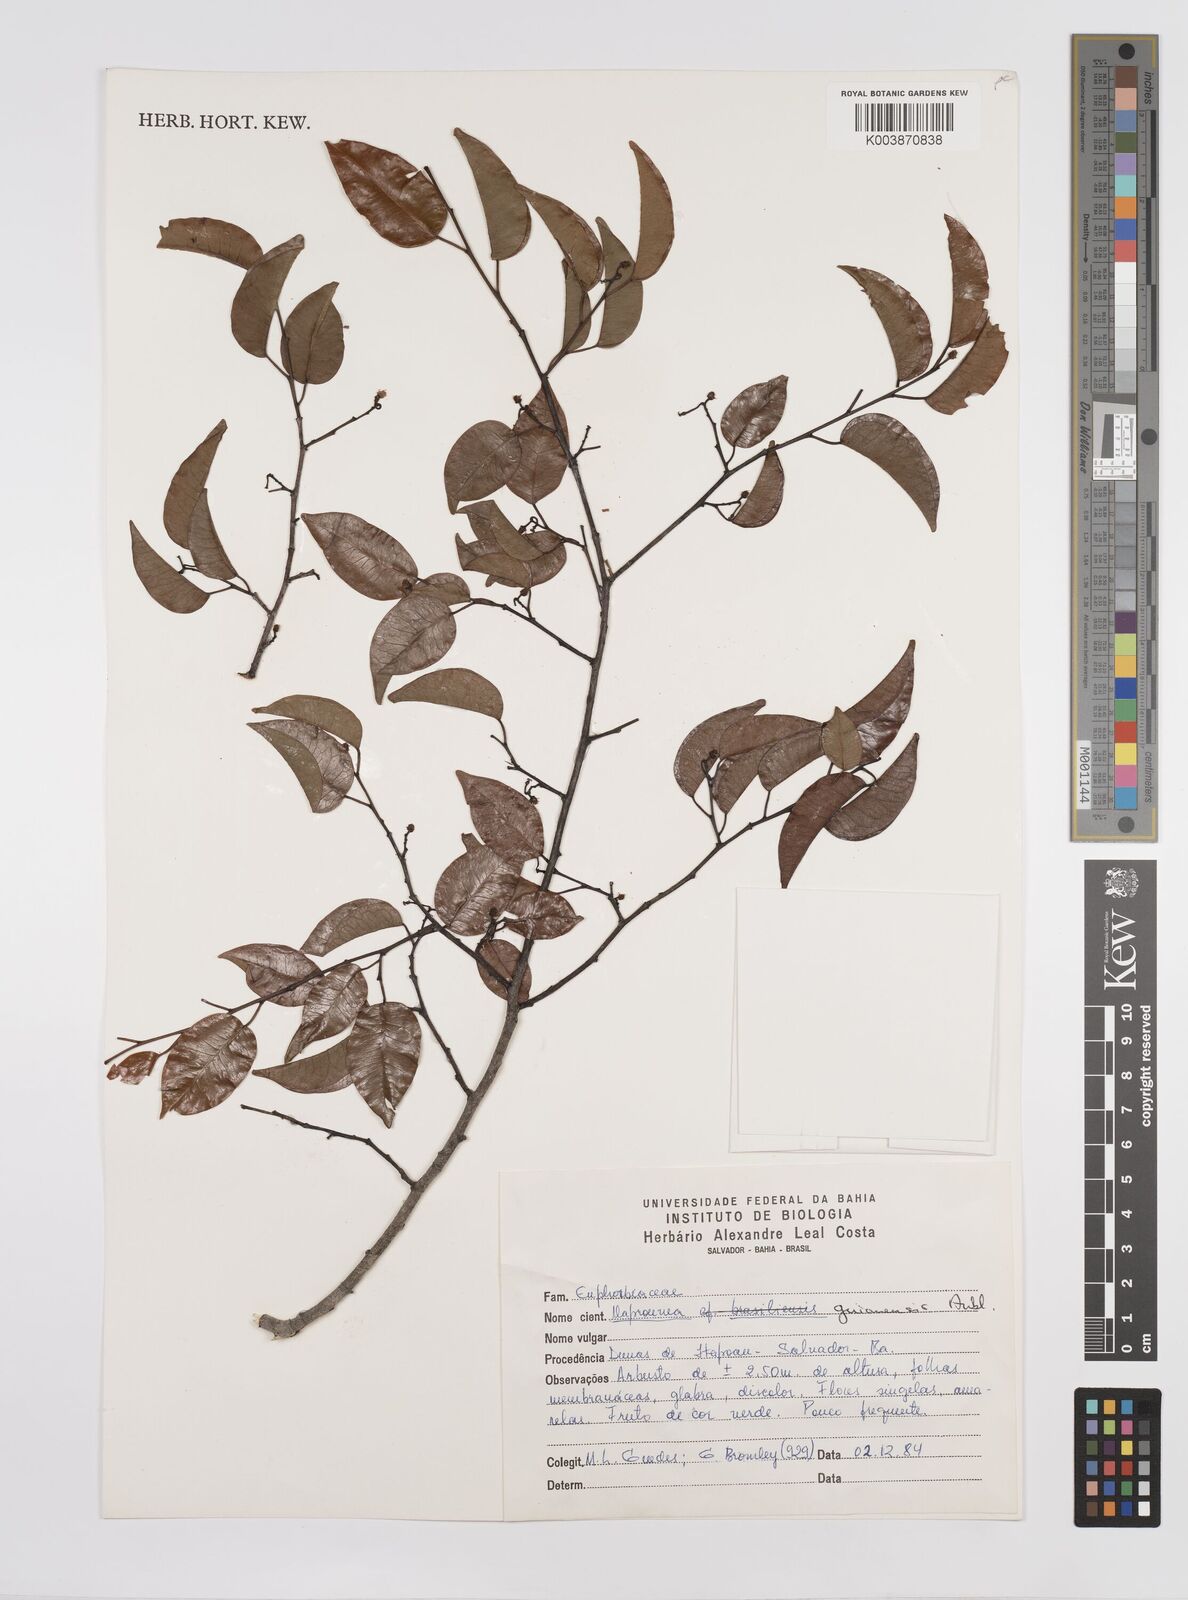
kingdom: Plantae
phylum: Tracheophyta
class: Magnoliopsida
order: Malpighiales
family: Euphorbiaceae
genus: Maprounea
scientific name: Maprounea guianensis
